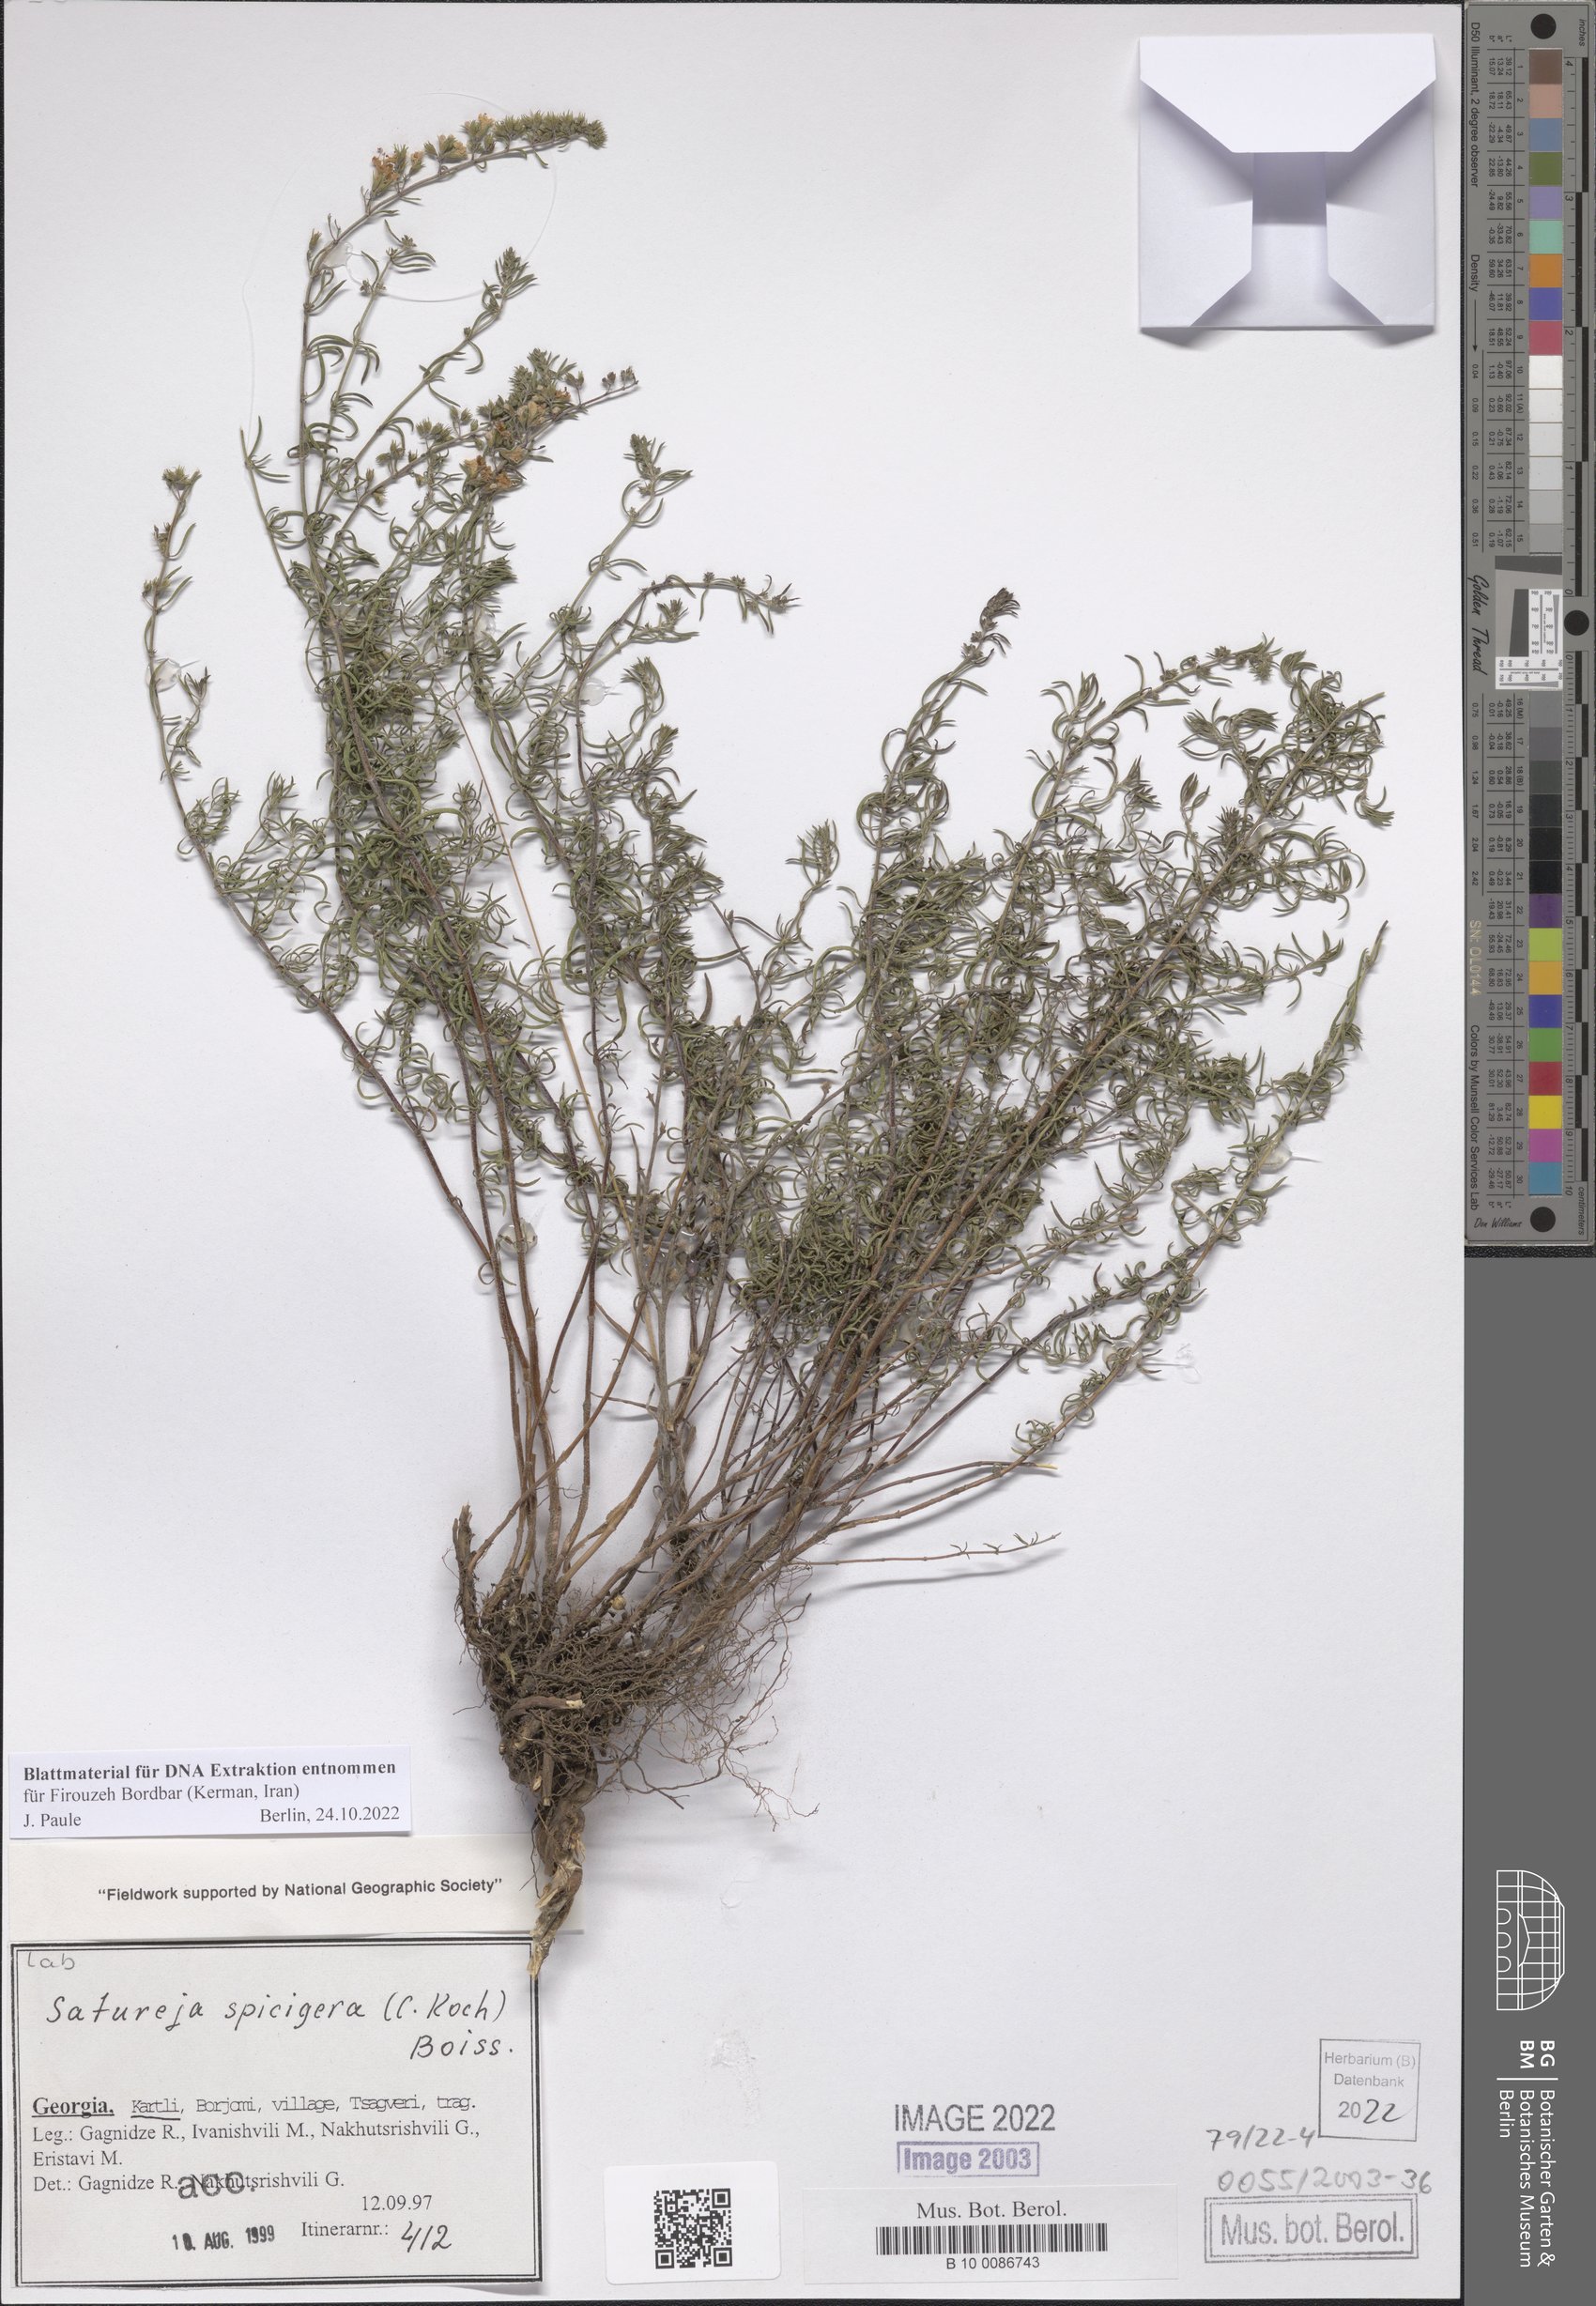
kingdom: Plantae
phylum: Tracheophyta
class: Magnoliopsida
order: Lamiales
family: Lamiaceae
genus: Satureja
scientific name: Satureja spicigera
